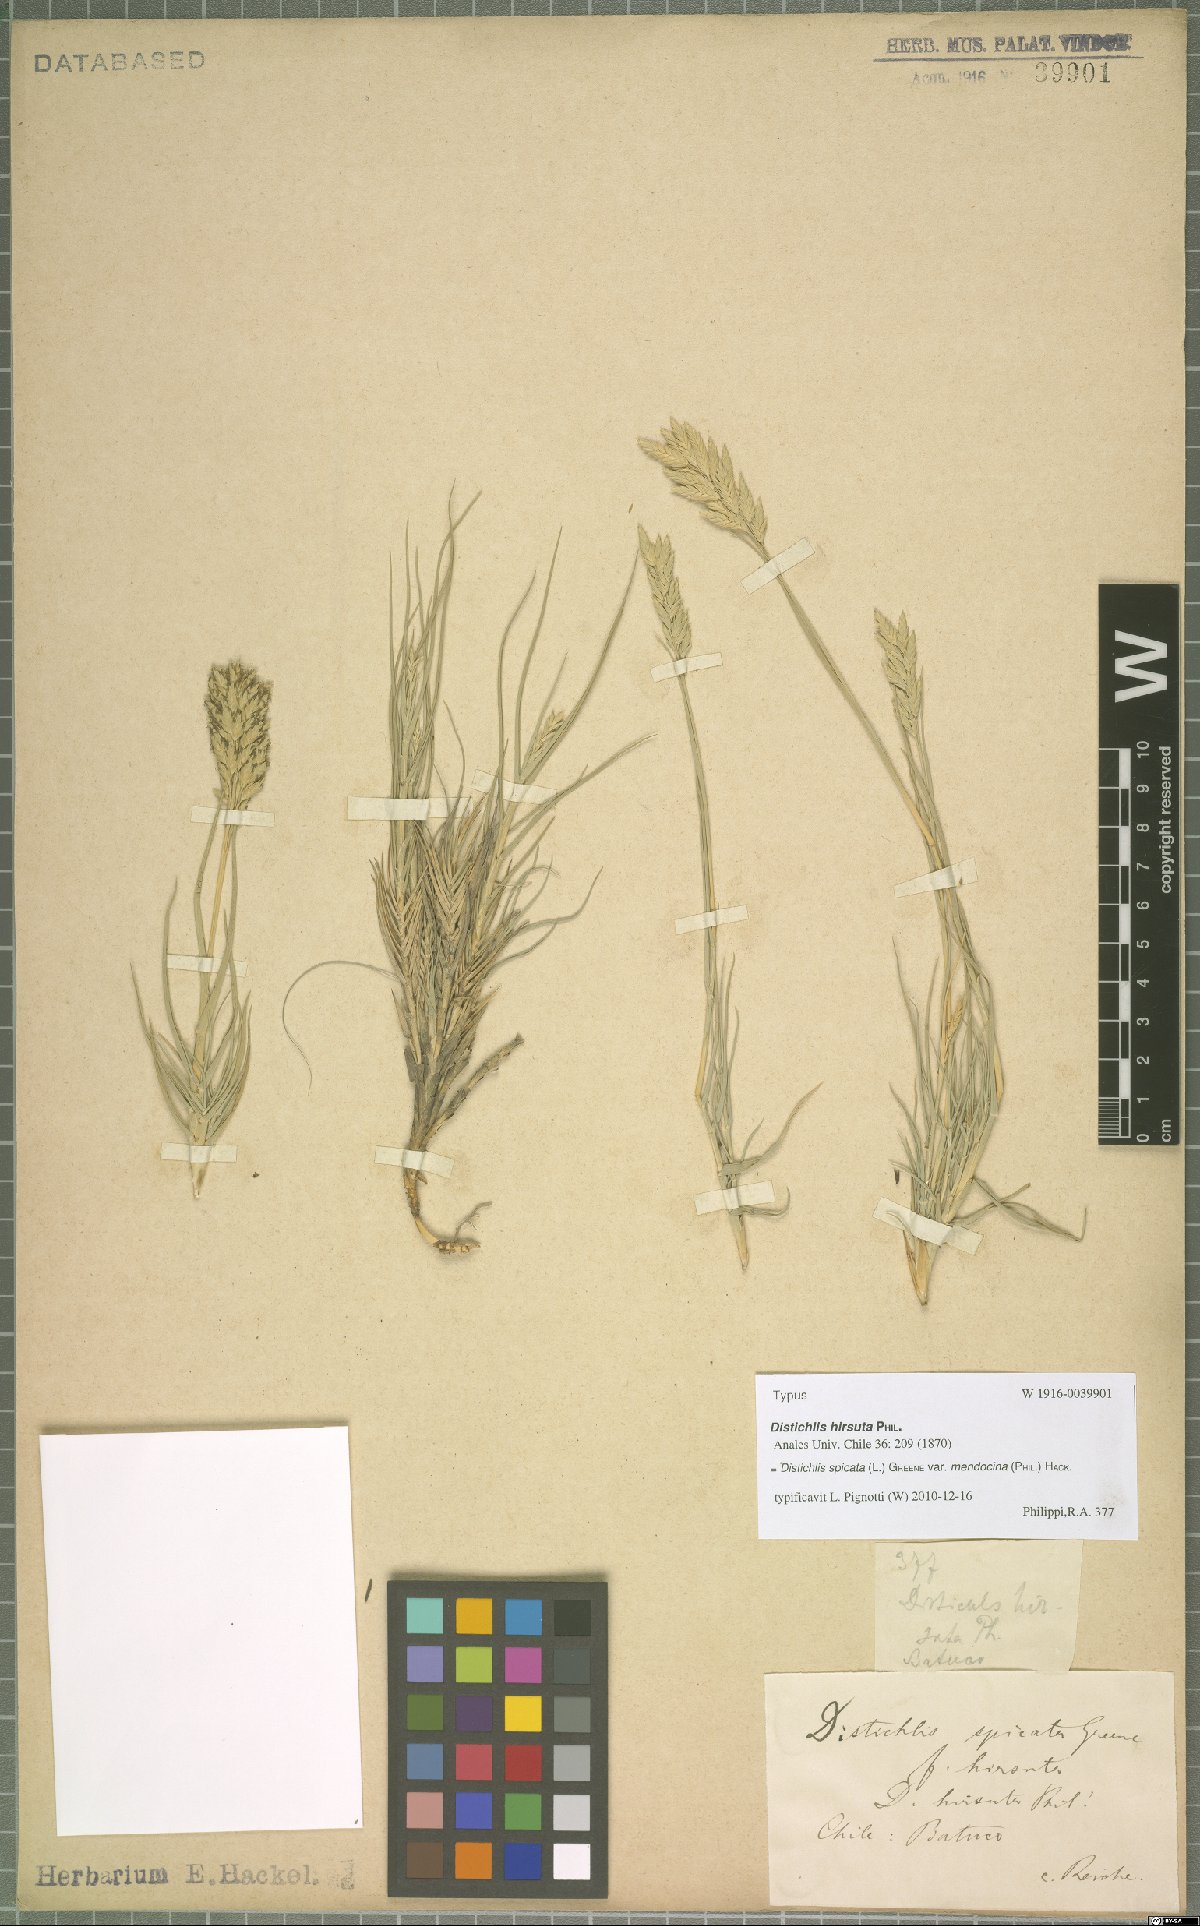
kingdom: Plantae
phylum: Tracheophyta
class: Liliopsida
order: Poales
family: Poaceae
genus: Distichlis
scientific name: Distichlis spicata
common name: Saltgrass
